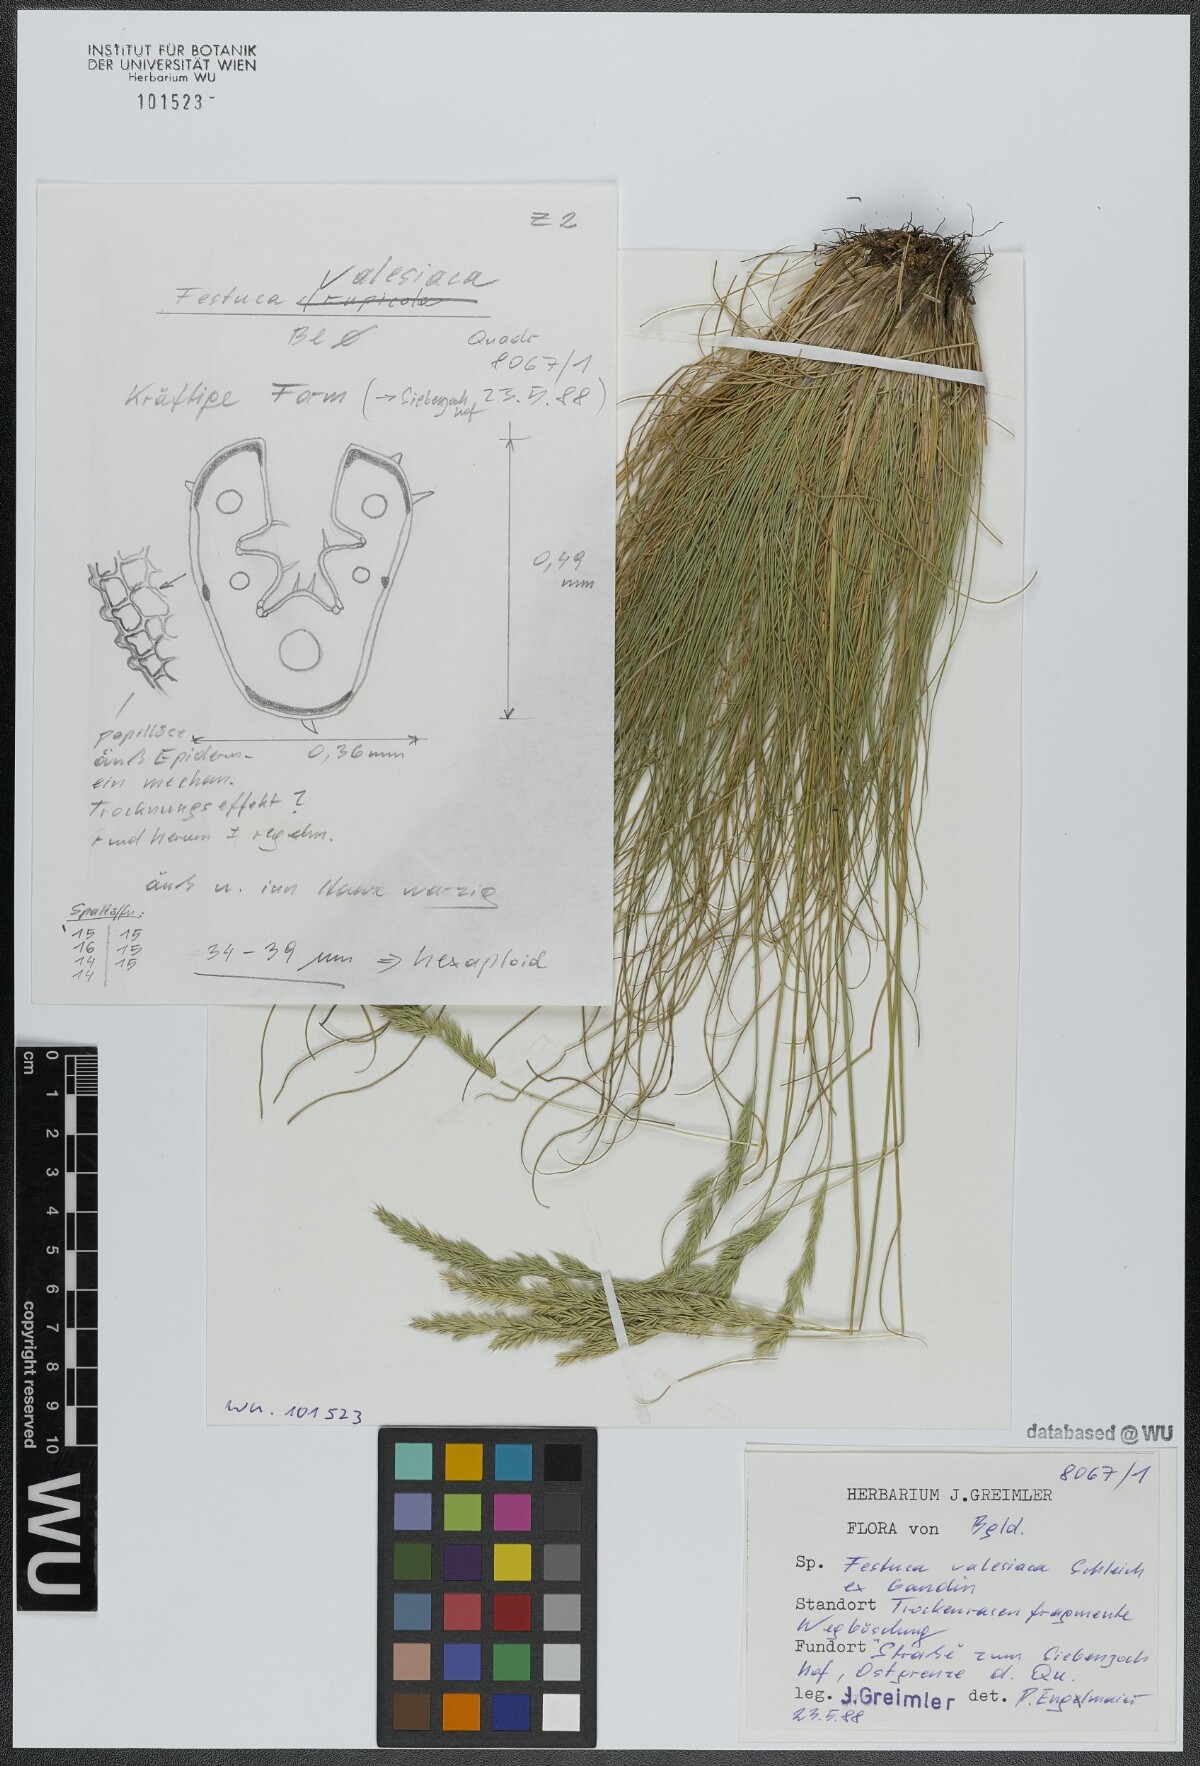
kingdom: Plantae
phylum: Tracheophyta
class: Liliopsida
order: Poales
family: Poaceae
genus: Festuca
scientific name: Festuca valesiaca
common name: Volga fescue
